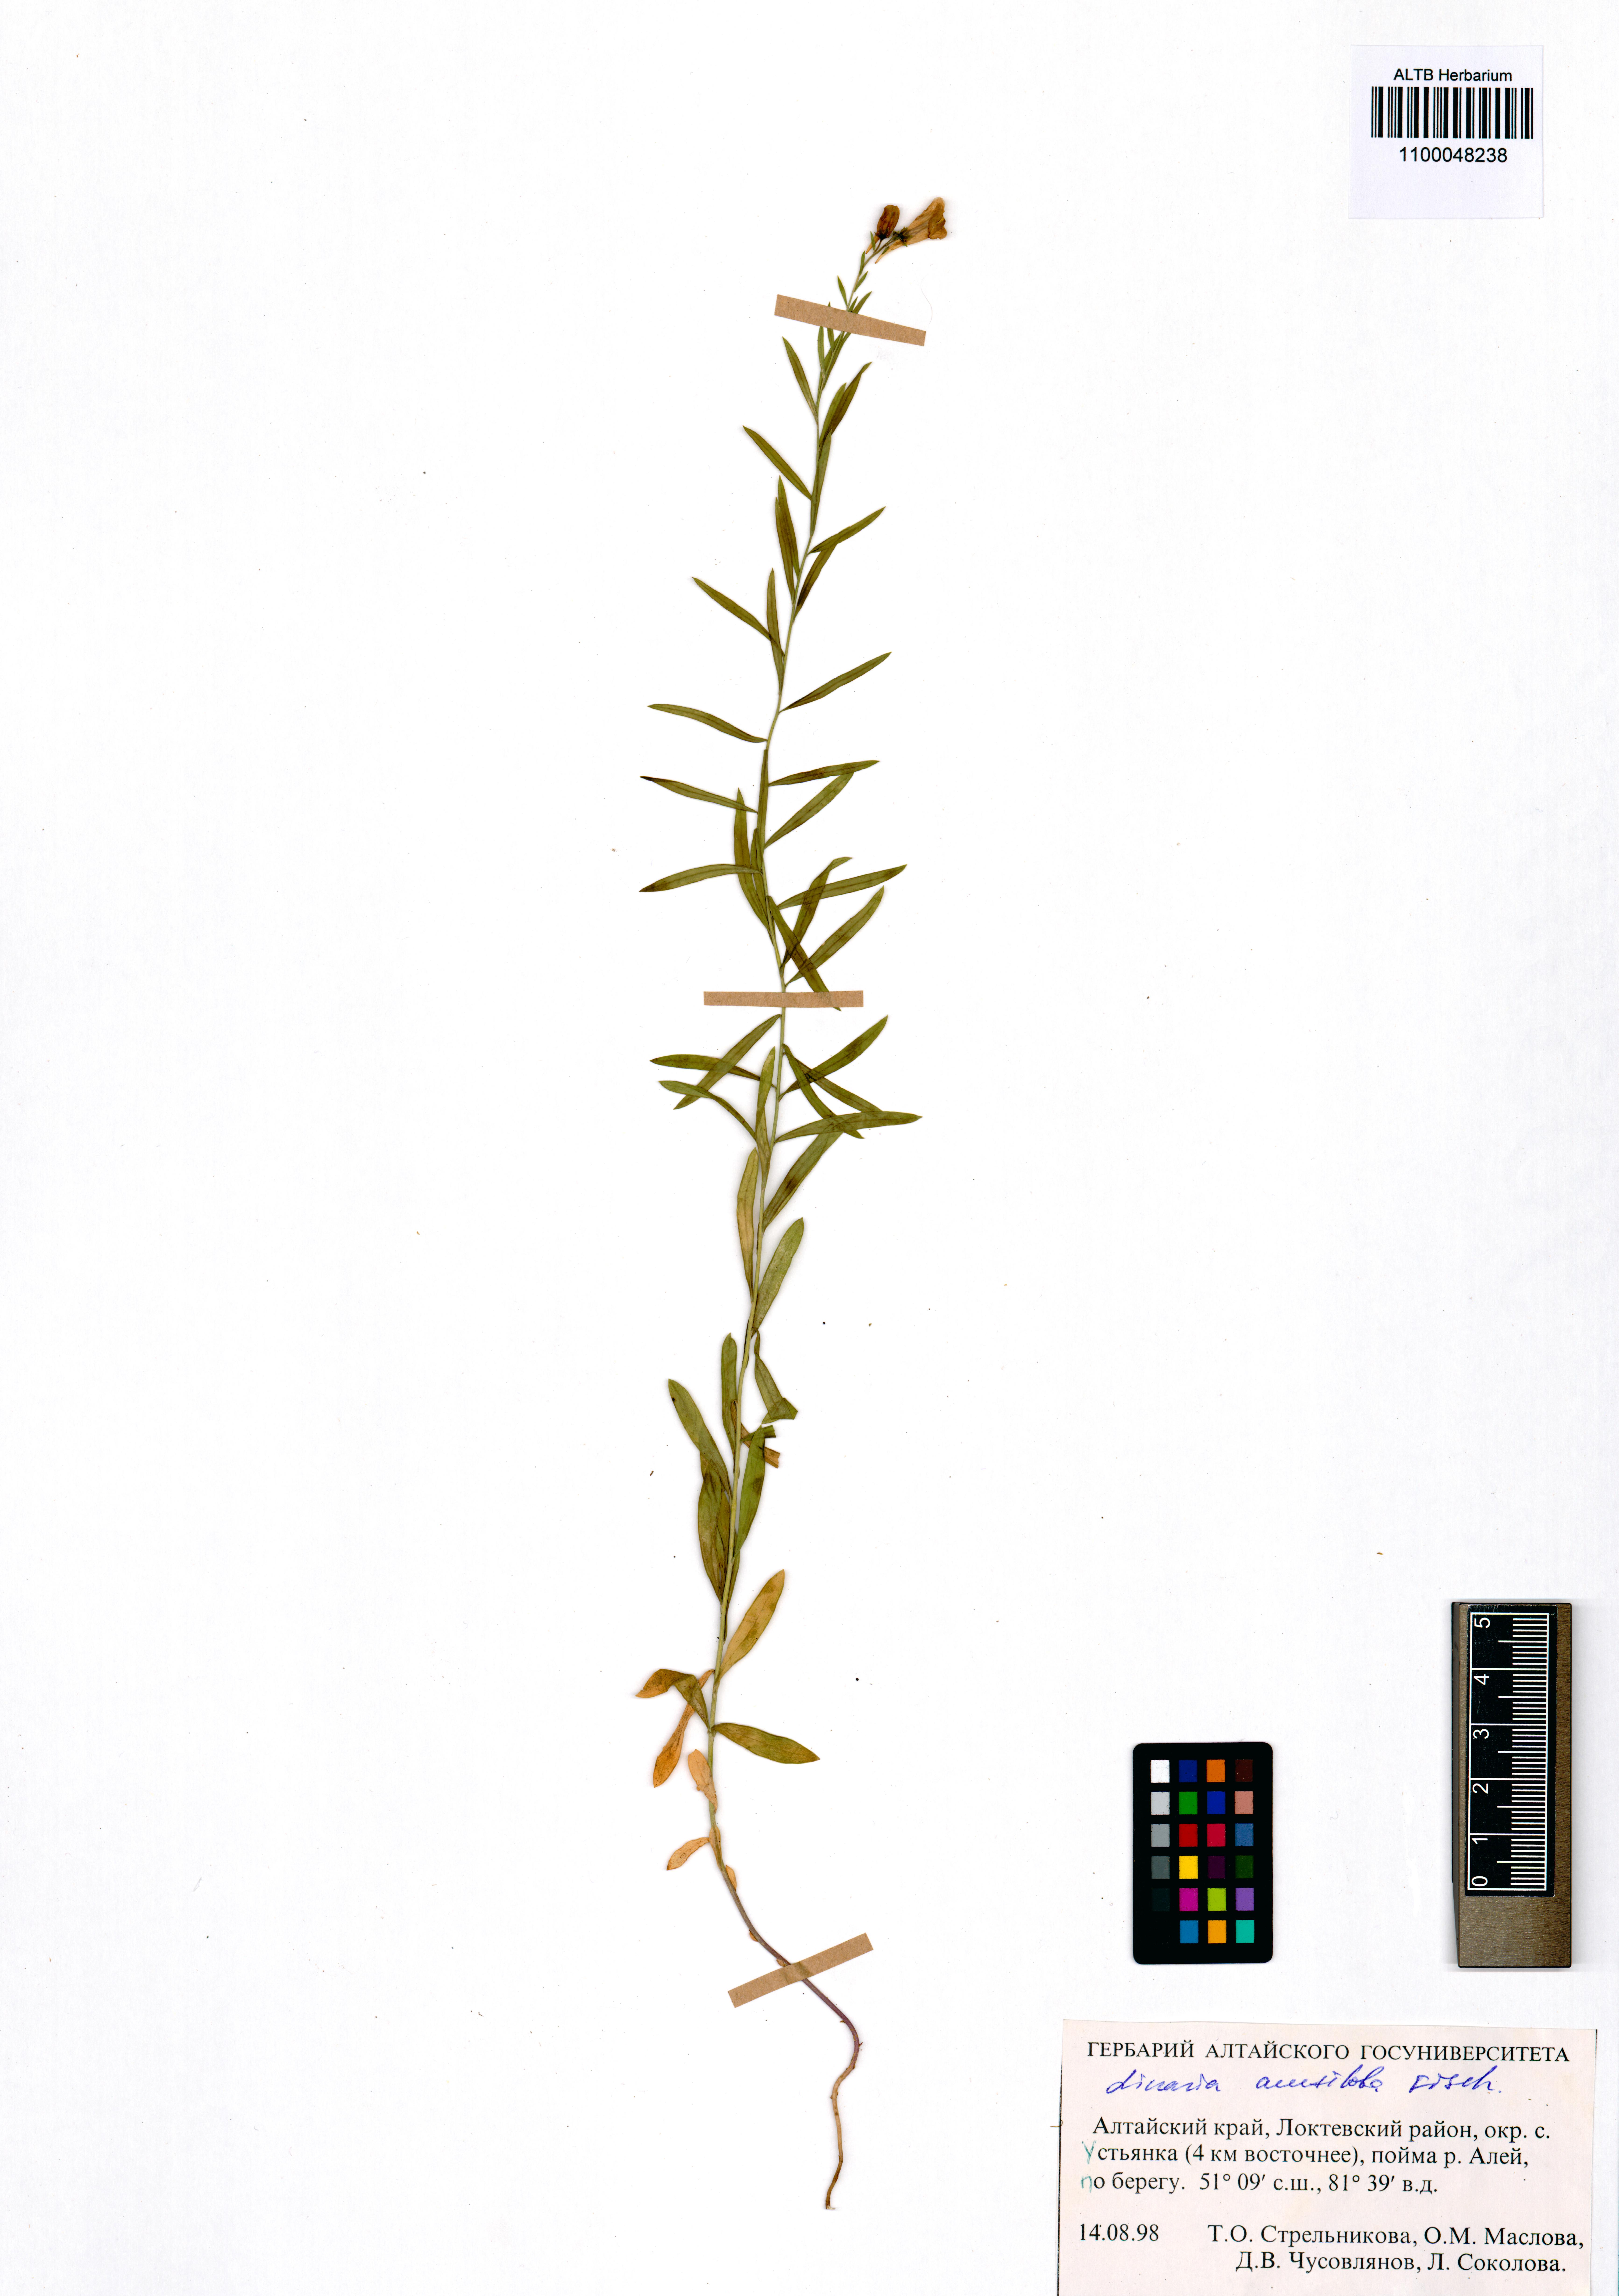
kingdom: Plantae
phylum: Tracheophyta
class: Magnoliopsida
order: Lamiales
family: Plantaginaceae
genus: Linaria
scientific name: Linaria acutiloba
